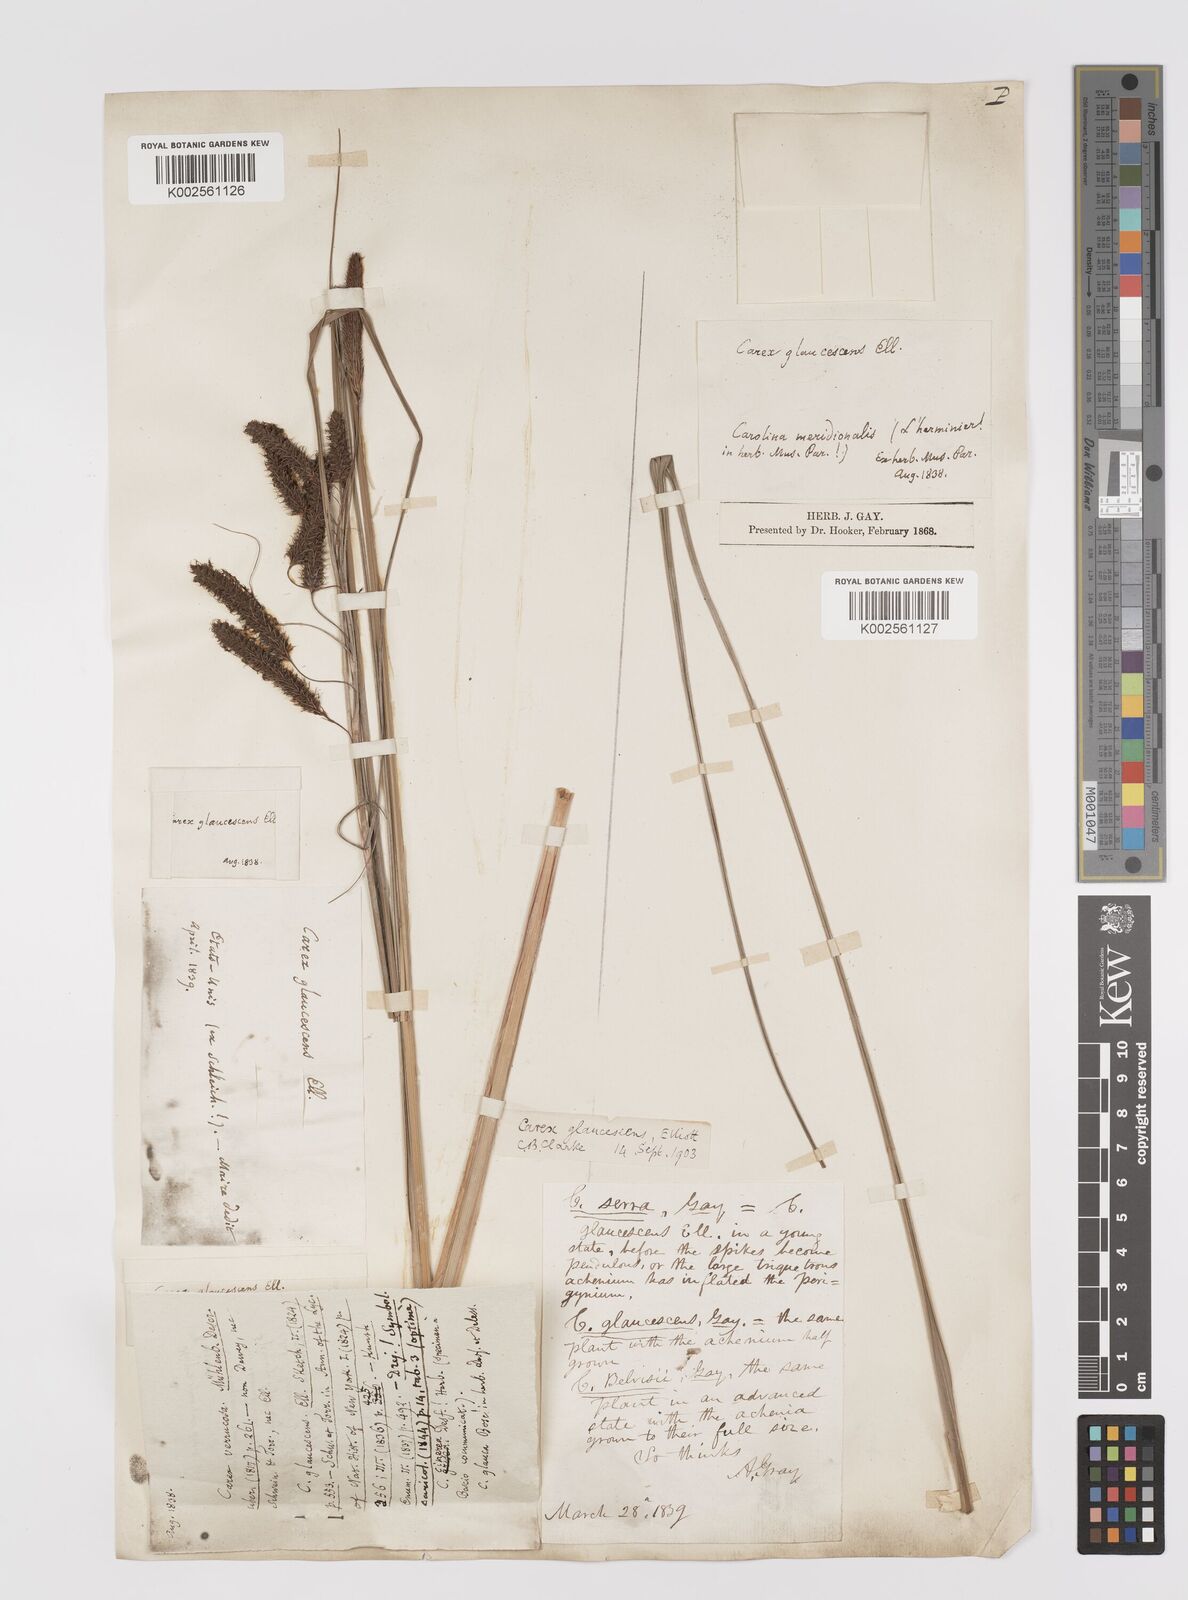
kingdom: Plantae
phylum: Tracheophyta
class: Liliopsida
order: Poales
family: Cyperaceae
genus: Carex
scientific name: Carex glaucescens
